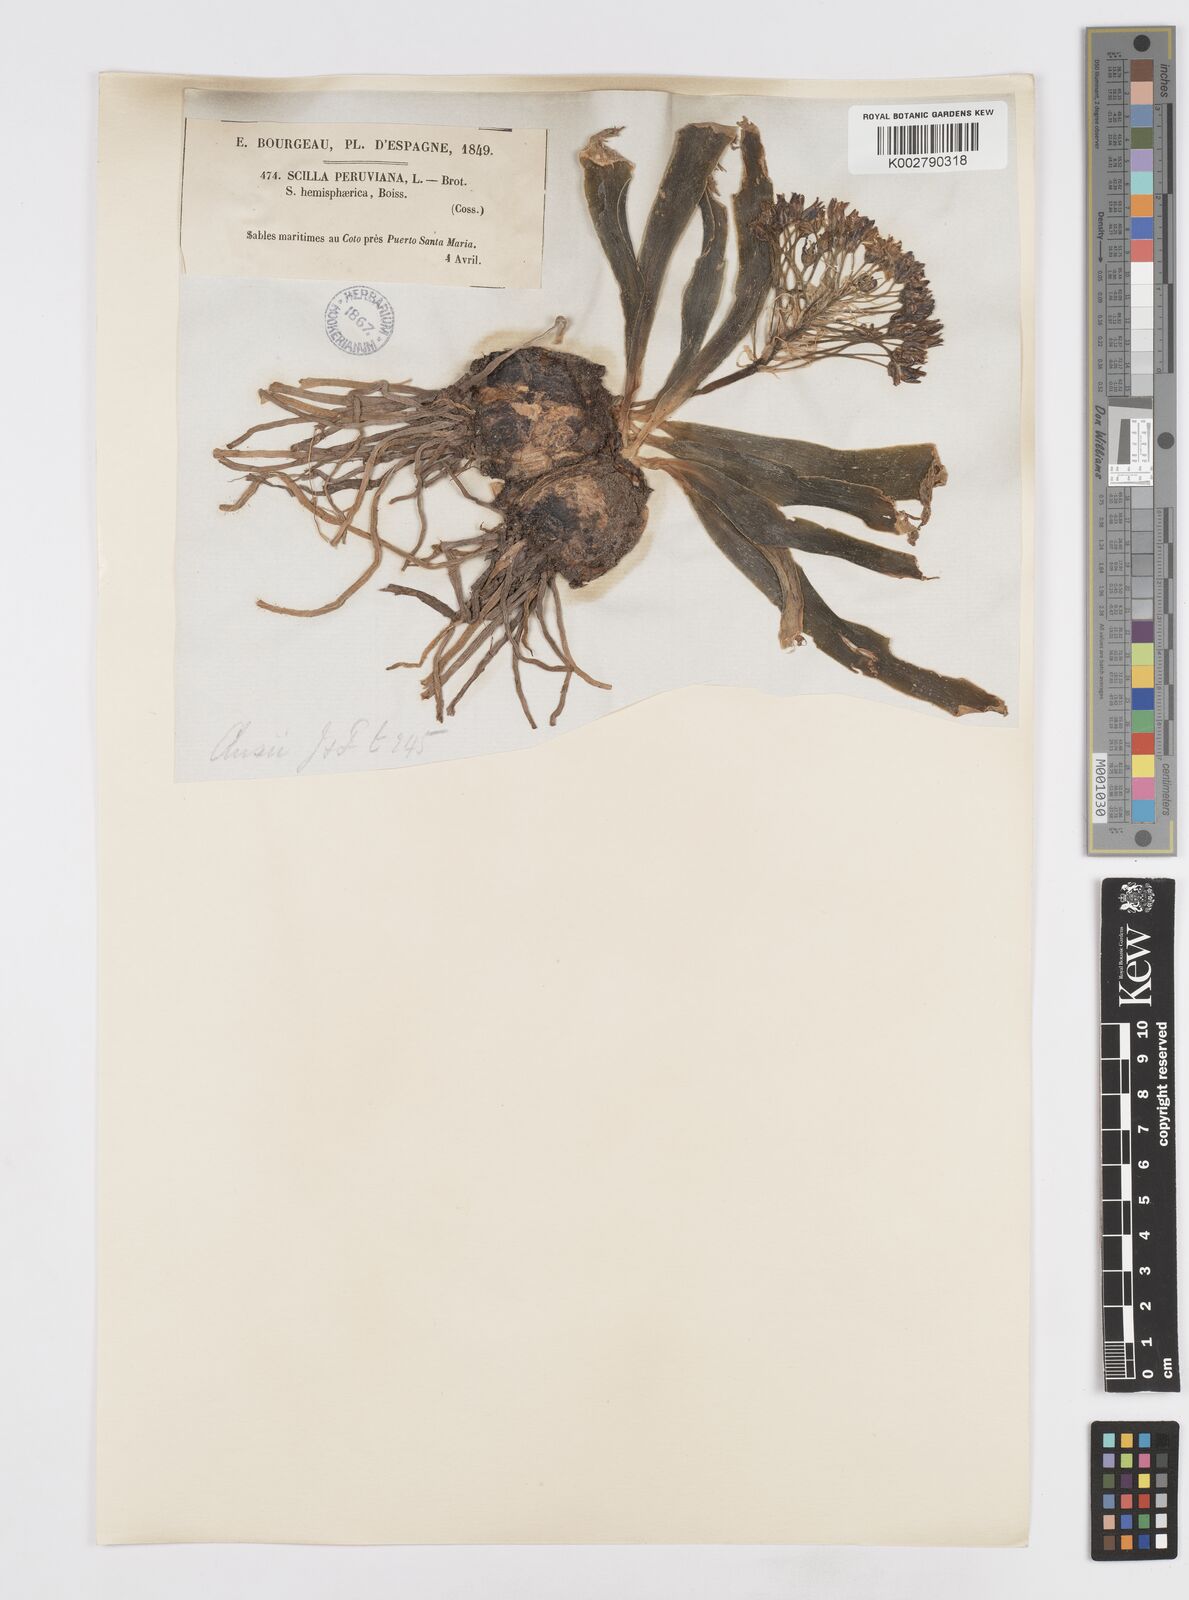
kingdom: Plantae
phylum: Tracheophyta
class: Liliopsida
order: Asparagales
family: Asparagaceae
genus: Scilla
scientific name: Scilla peruviana
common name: Portuguese squill
